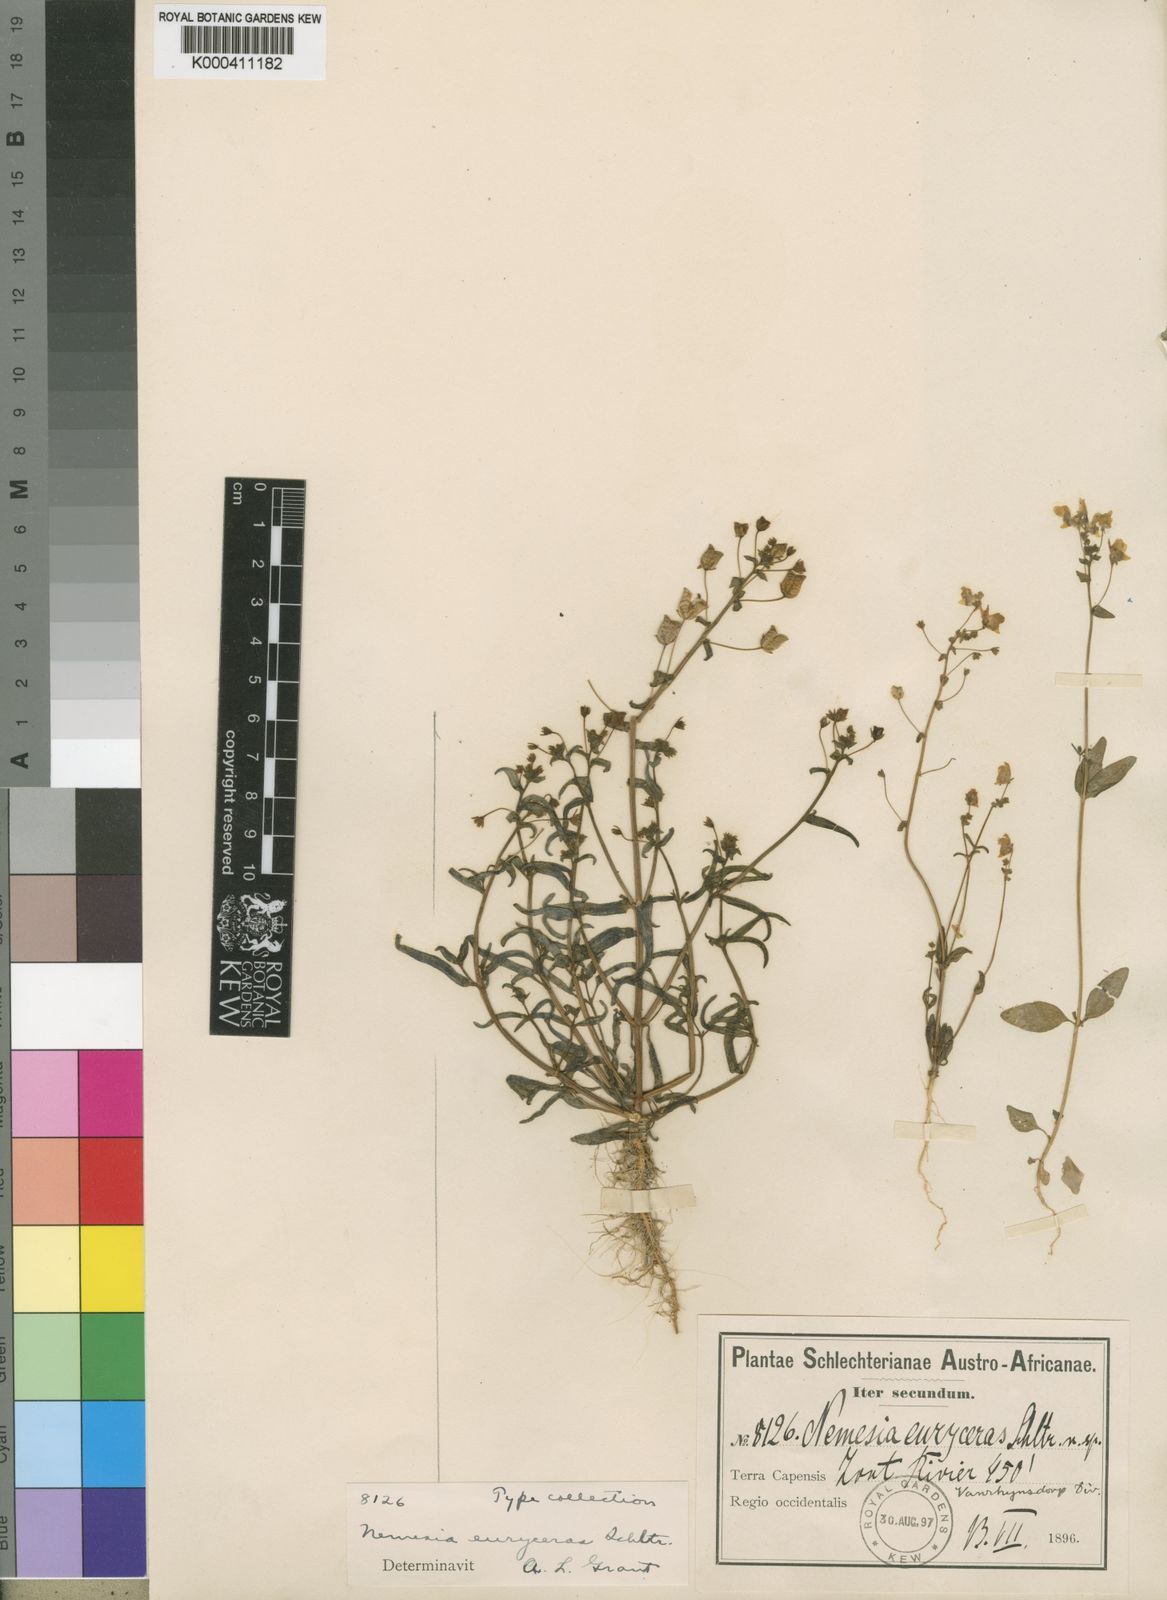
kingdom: Plantae
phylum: Tracheophyta
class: Magnoliopsida
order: Lamiales
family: Scrophulariaceae
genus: Nemesia
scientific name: Nemesia euryceras
